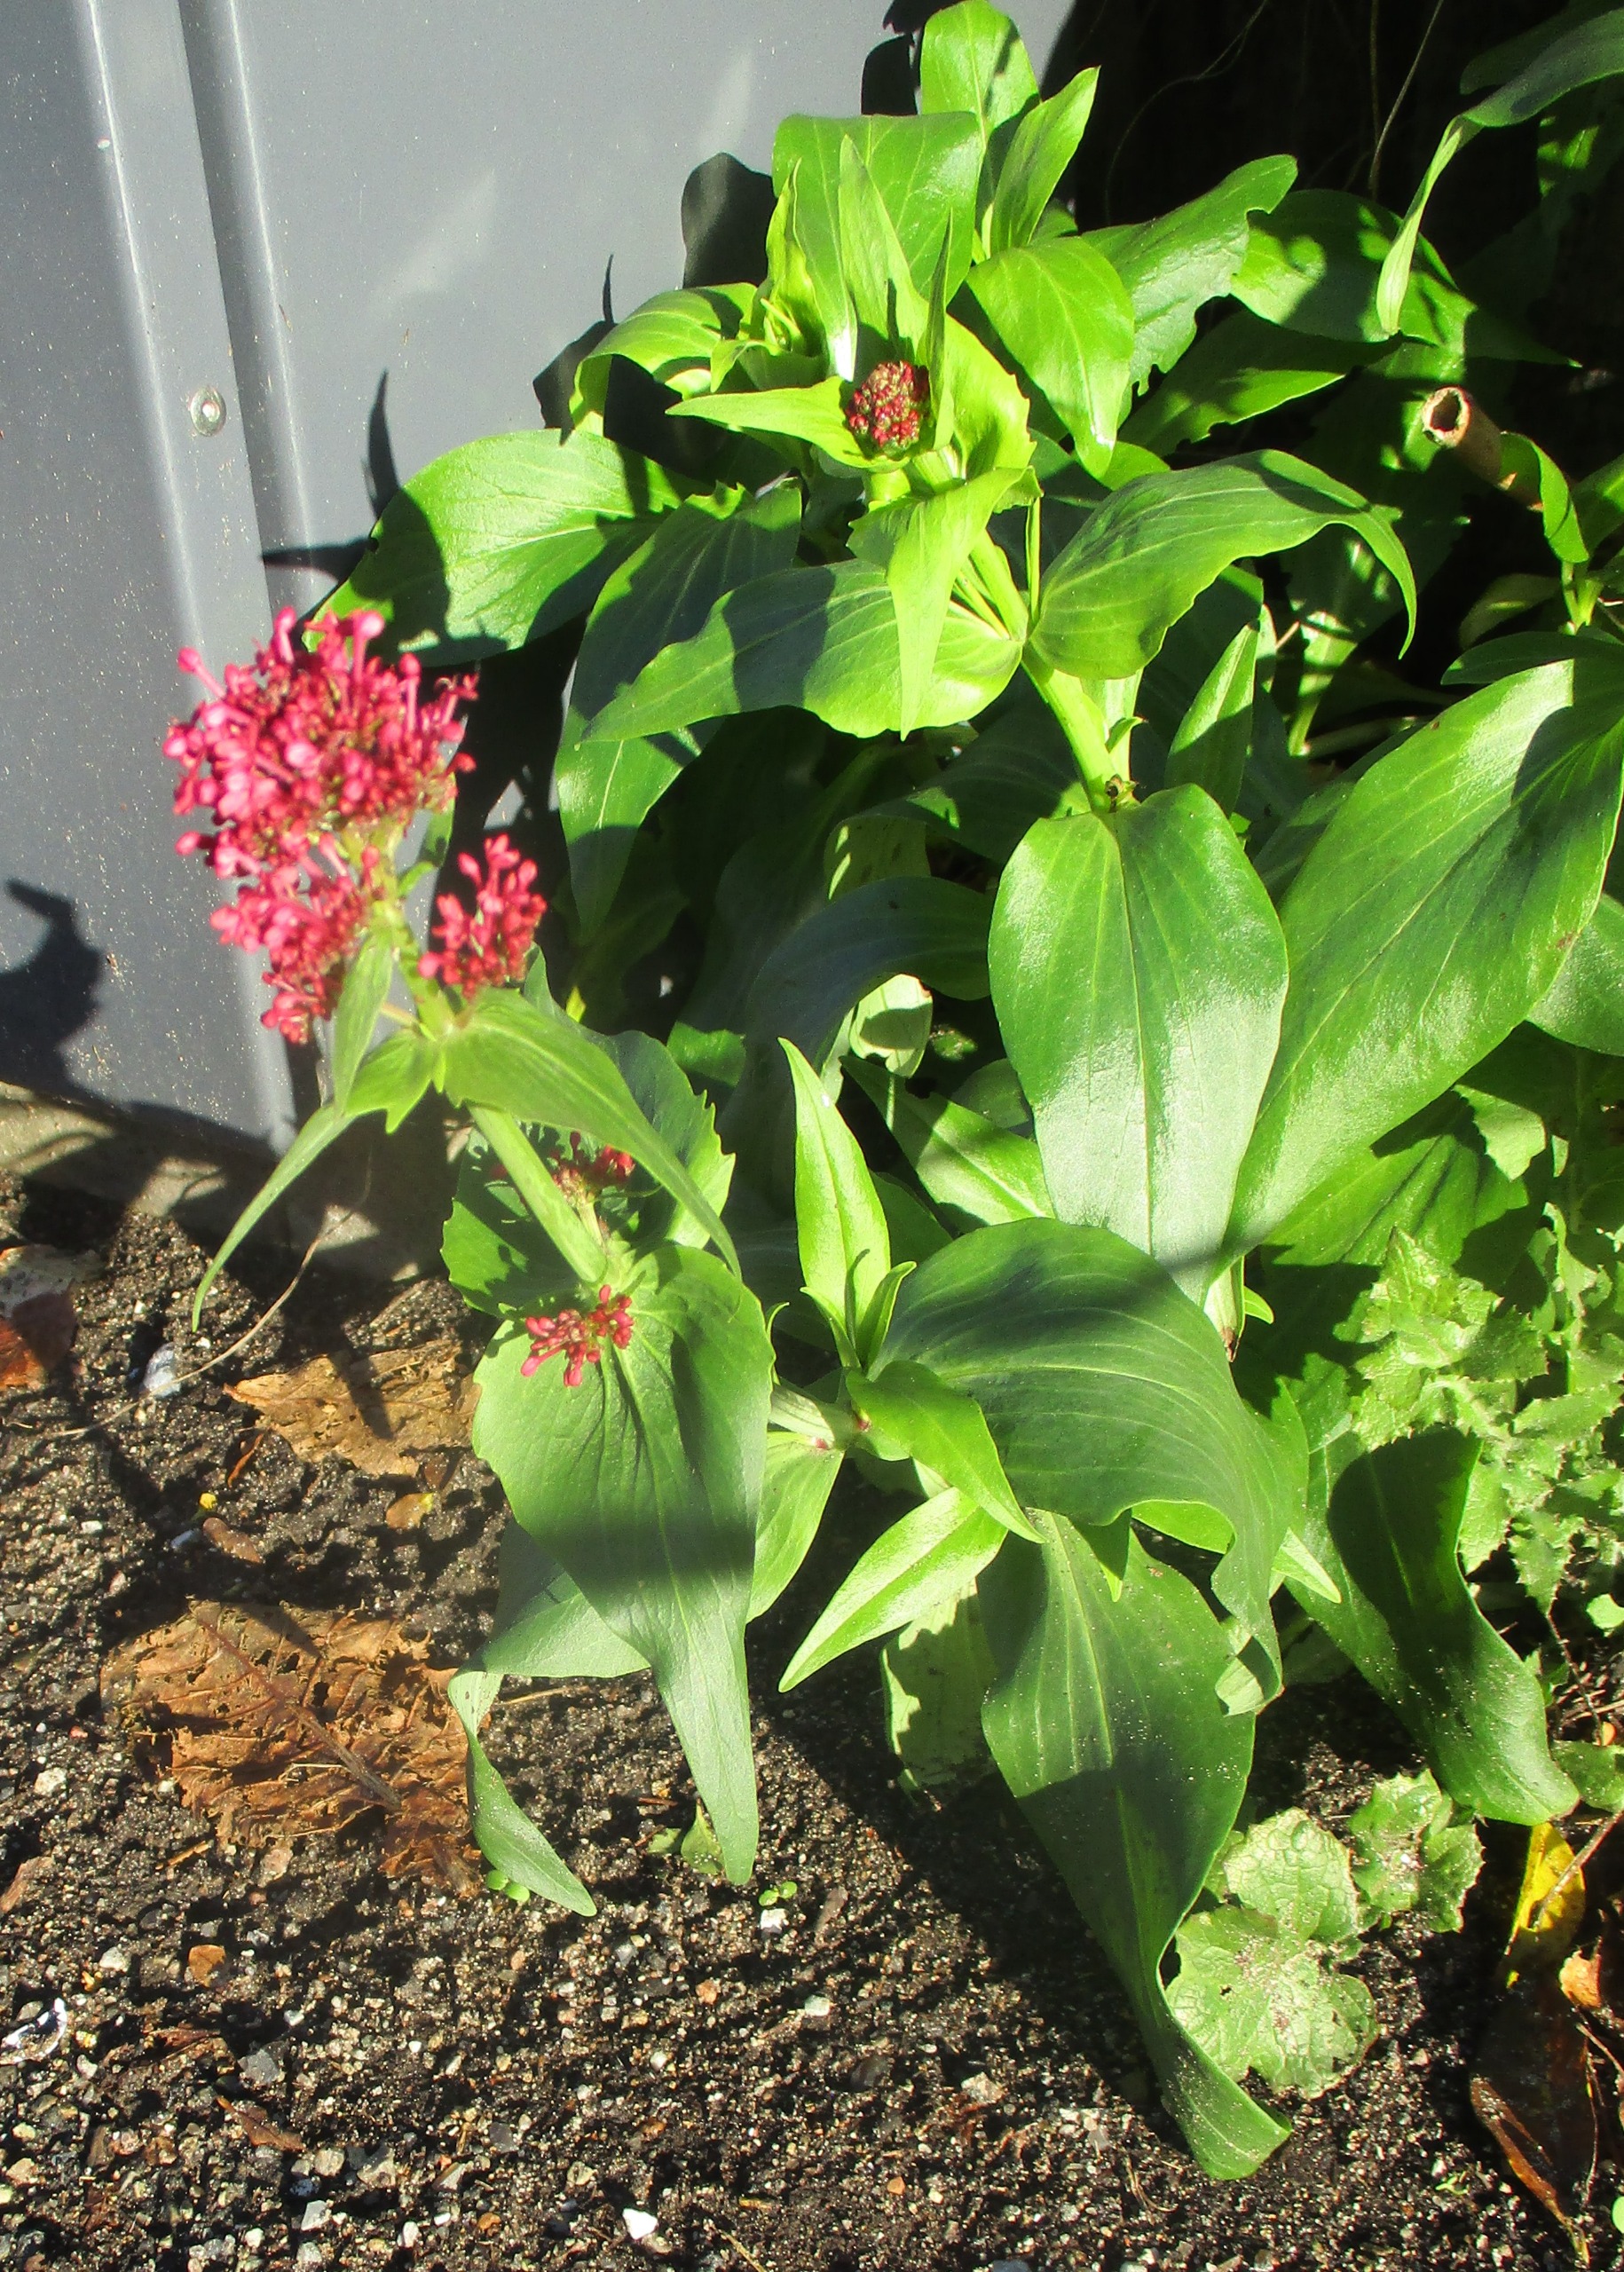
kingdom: Plantae
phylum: Tracheophyta
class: Magnoliopsida
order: Dipsacales
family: Caprifoliaceae
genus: Centranthus
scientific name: Centranthus ruber
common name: Sporebaldrian
